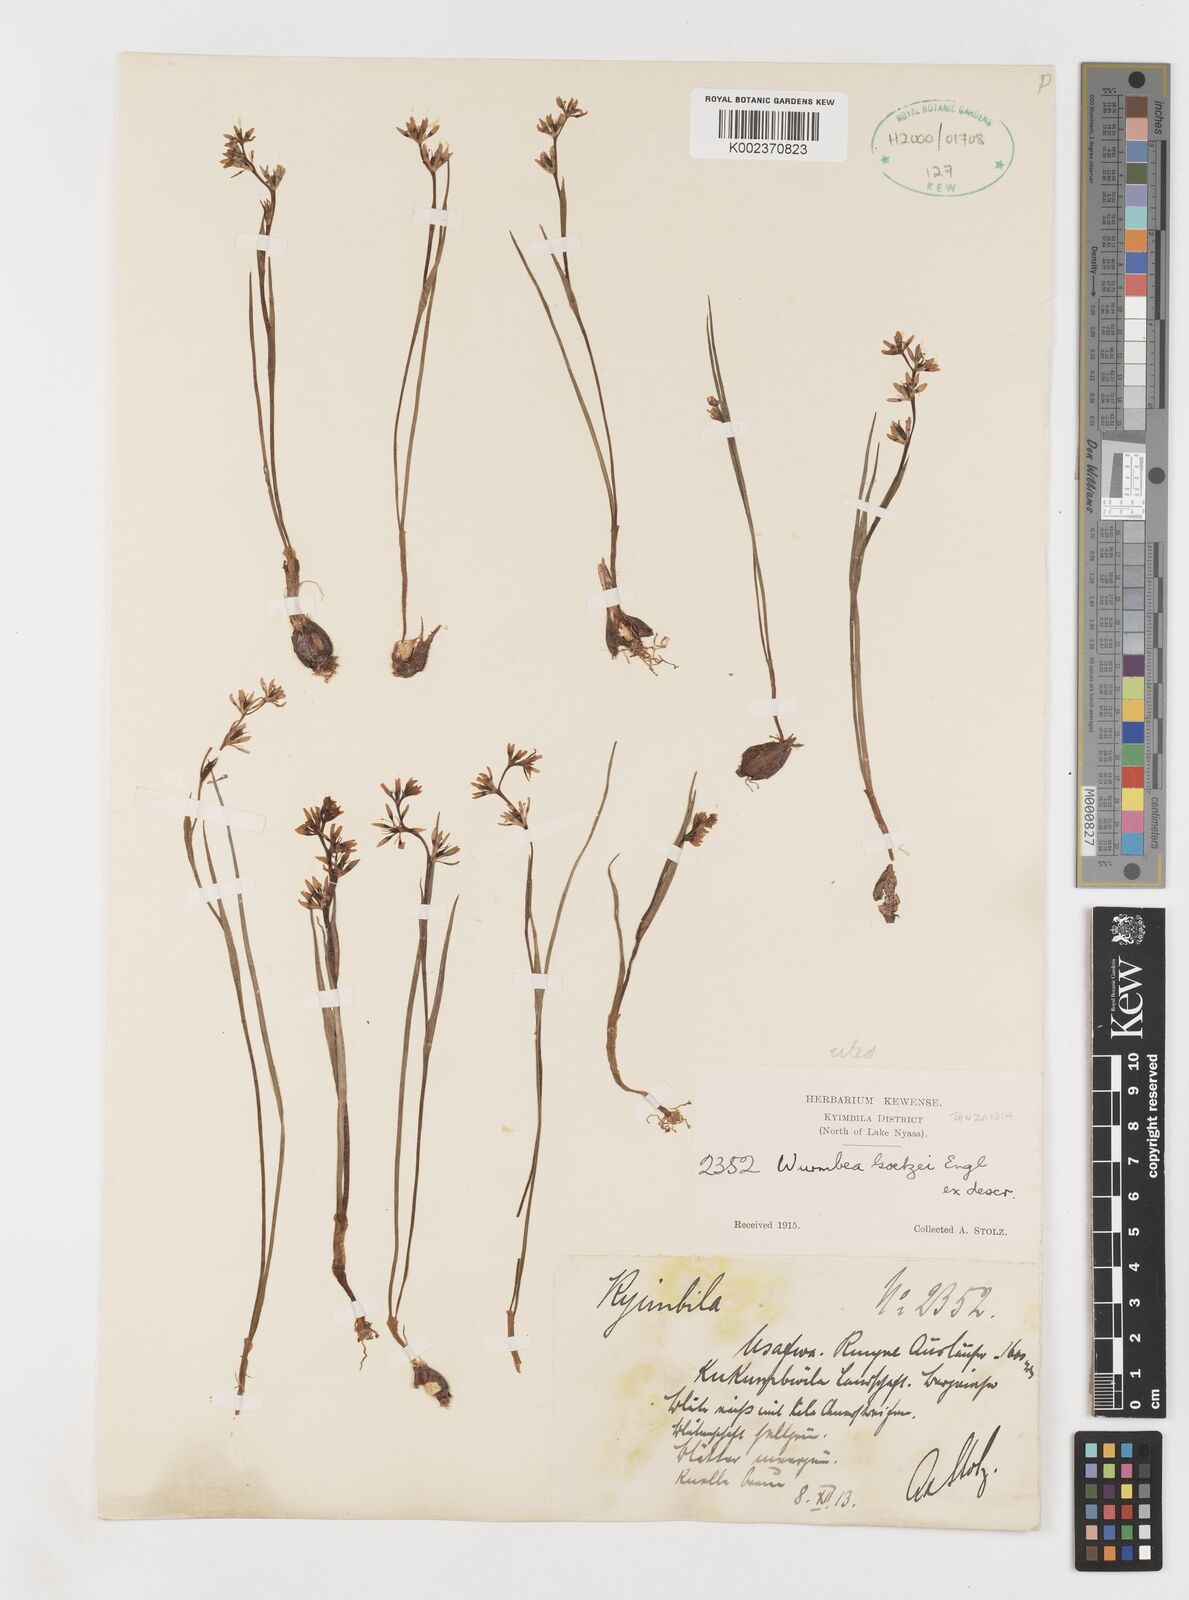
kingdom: Plantae
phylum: Tracheophyta
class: Liliopsida
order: Liliales
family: Colchicaceae
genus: Wurmbea
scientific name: Wurmbea tenuis
